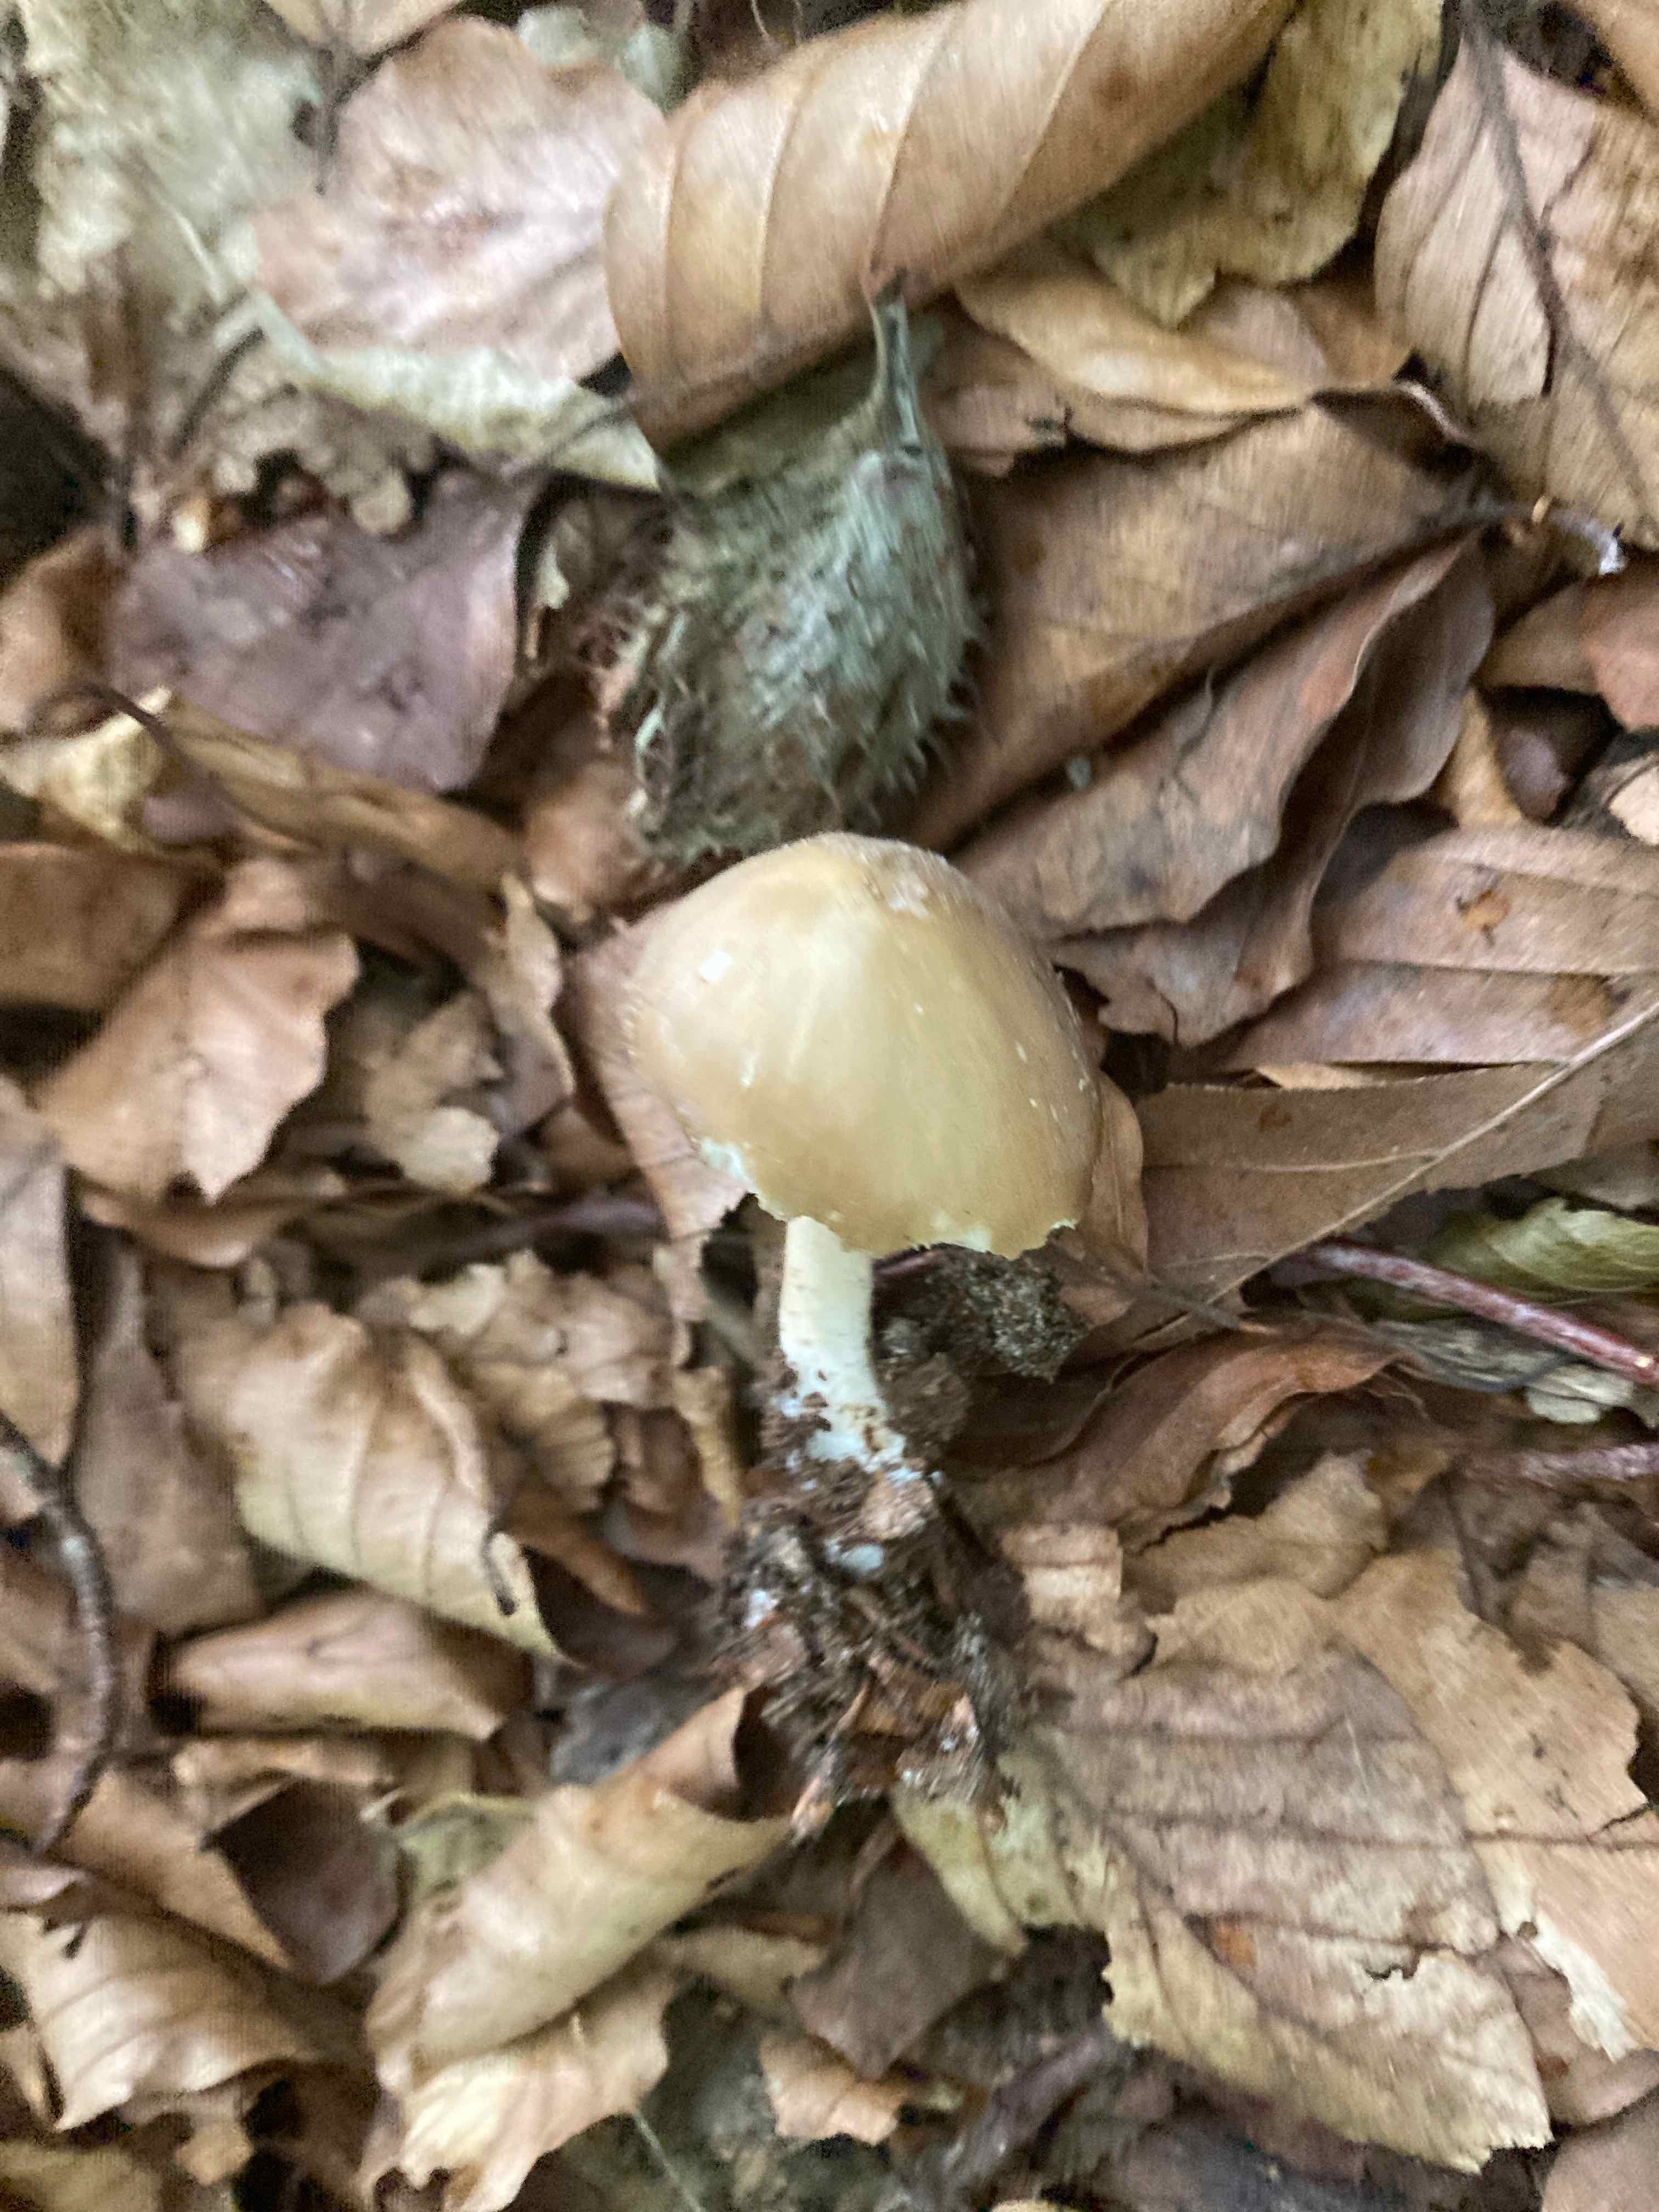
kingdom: Fungi
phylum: Basidiomycota
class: Agaricomycetes
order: Agaricales
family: Porotheleaceae
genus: Hydropodia
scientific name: Hydropodia subalpina
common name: vår-fnugfod
